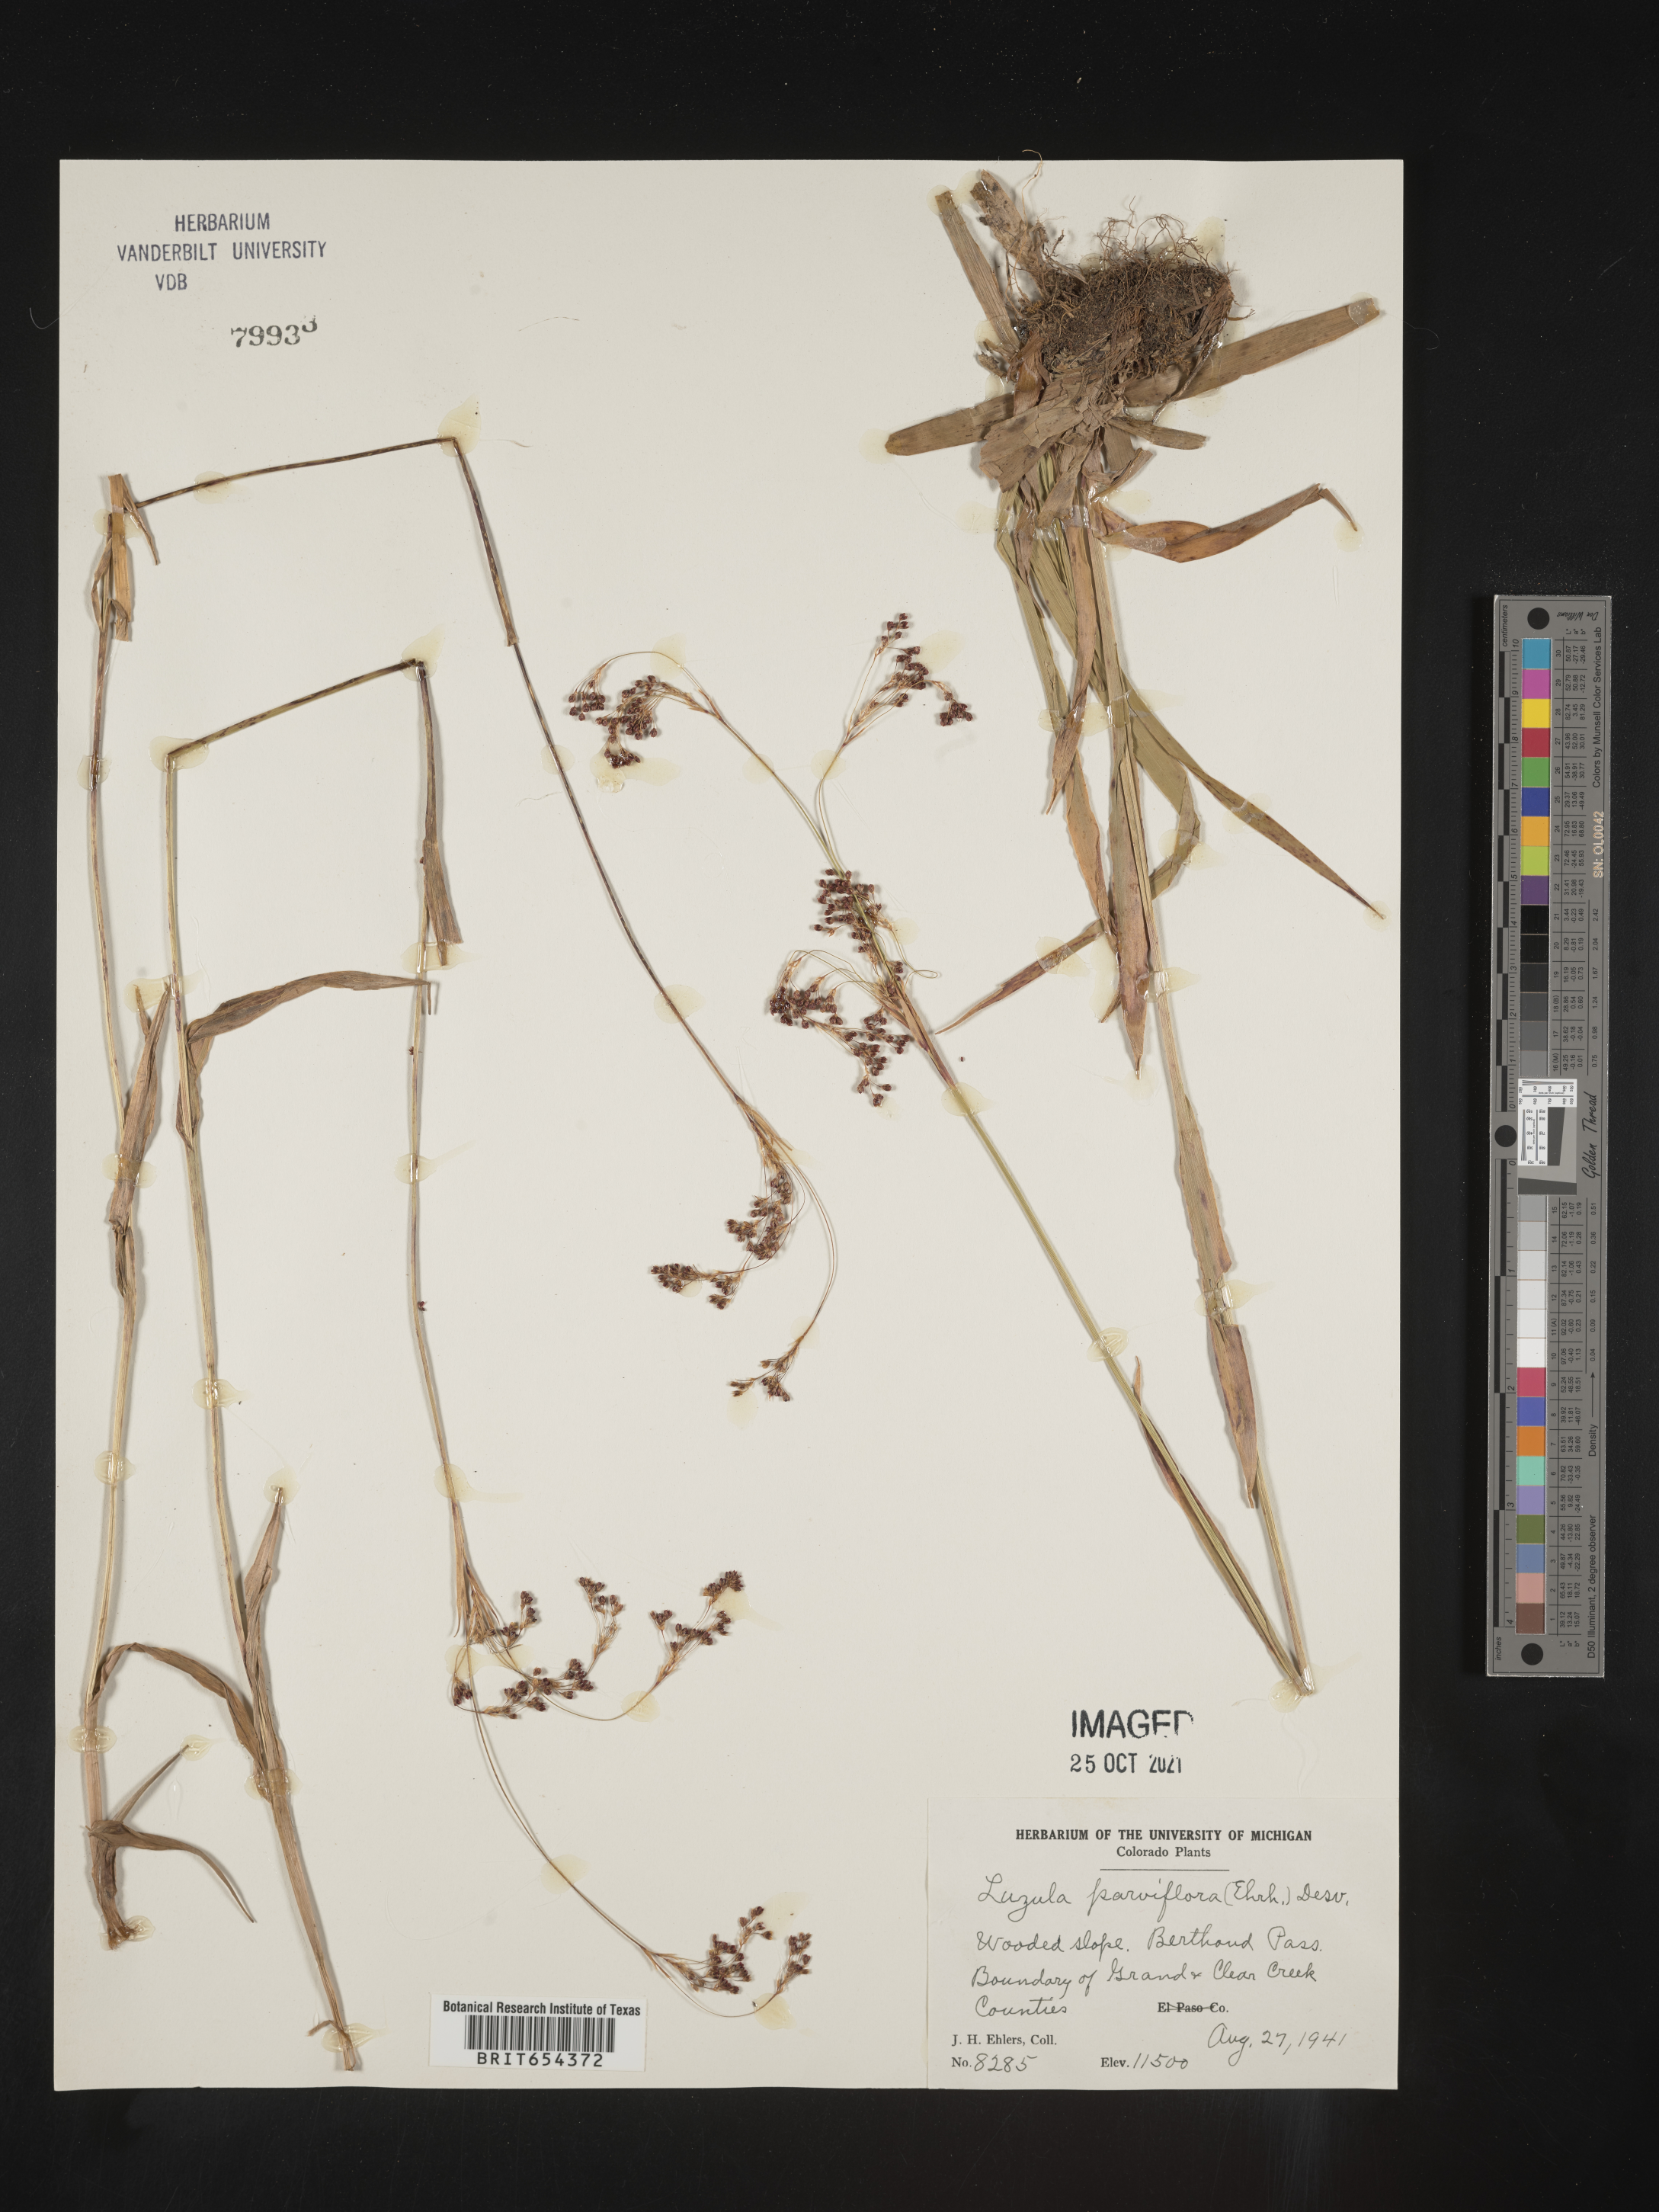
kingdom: Plantae
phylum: Tracheophyta
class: Liliopsida
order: Poales
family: Juncaceae
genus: Luzula
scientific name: Luzula parviflora
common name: Millet woodrush
